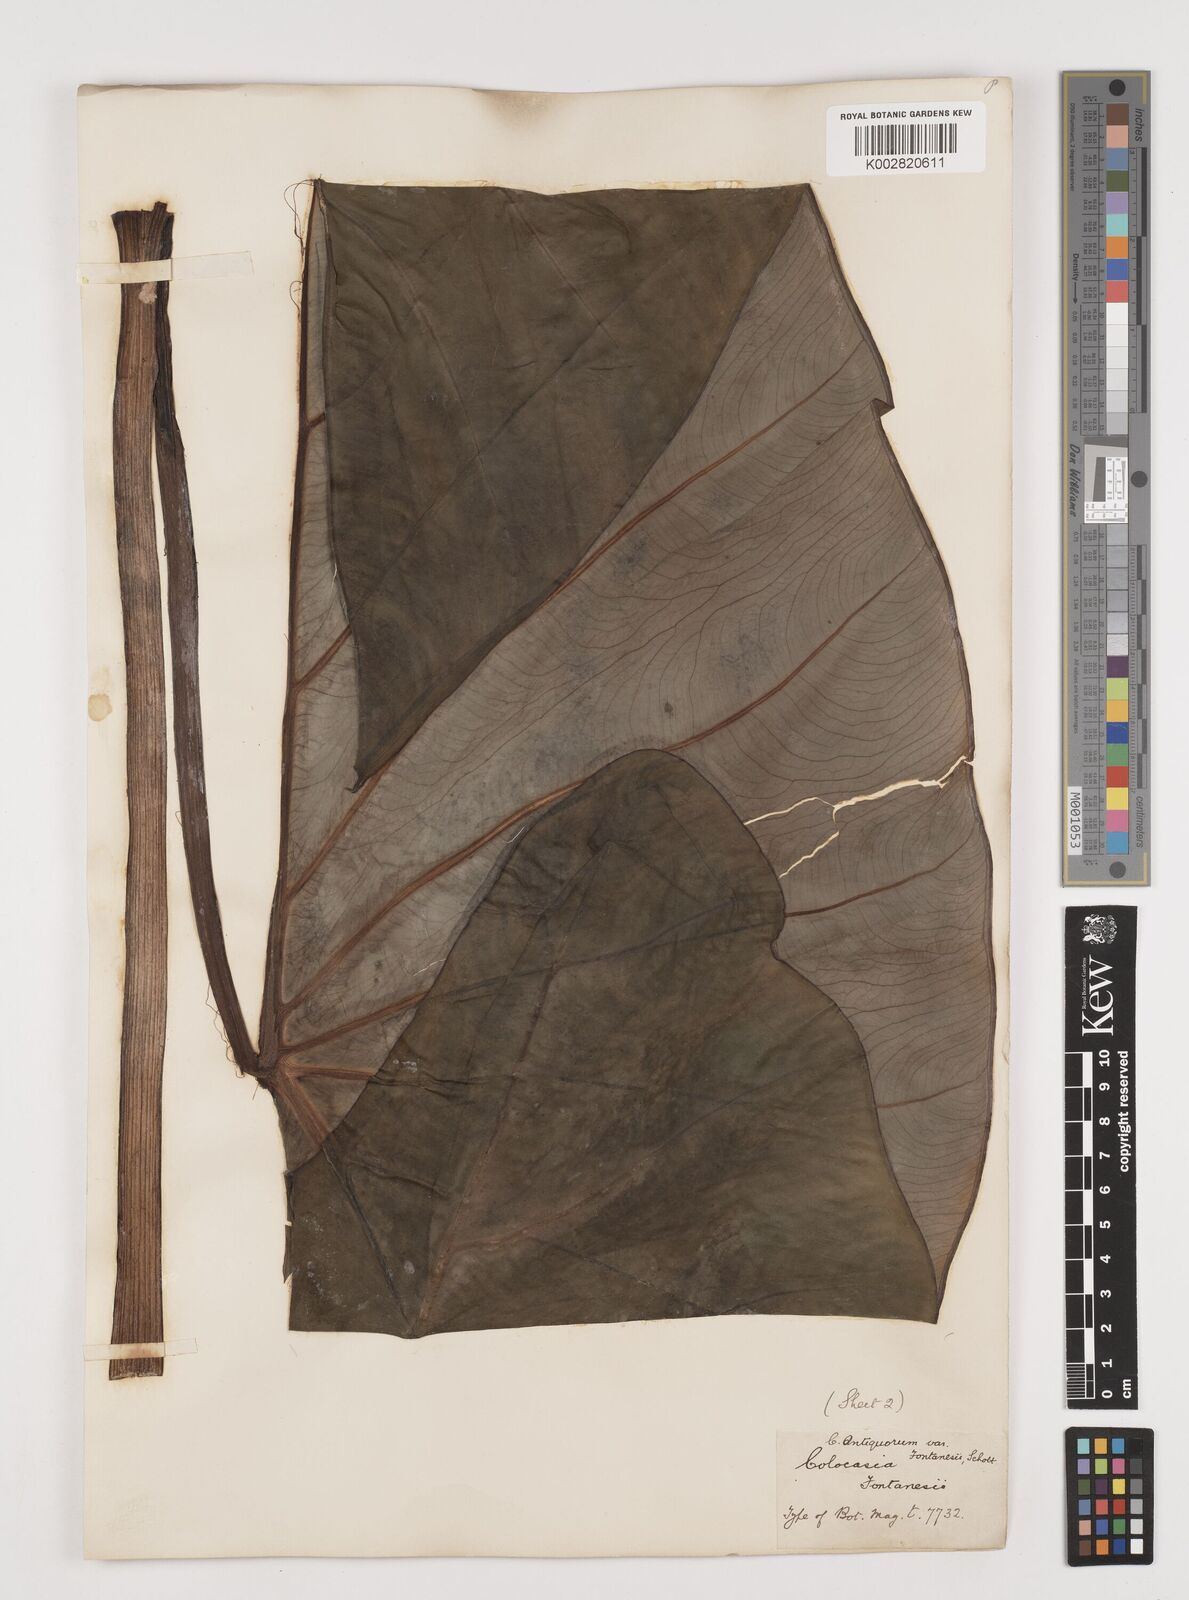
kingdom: Plantae
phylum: Tracheophyta
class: Liliopsida
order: Alismatales
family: Araceae
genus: Colocasia
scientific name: Colocasia esculenta
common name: Taro
